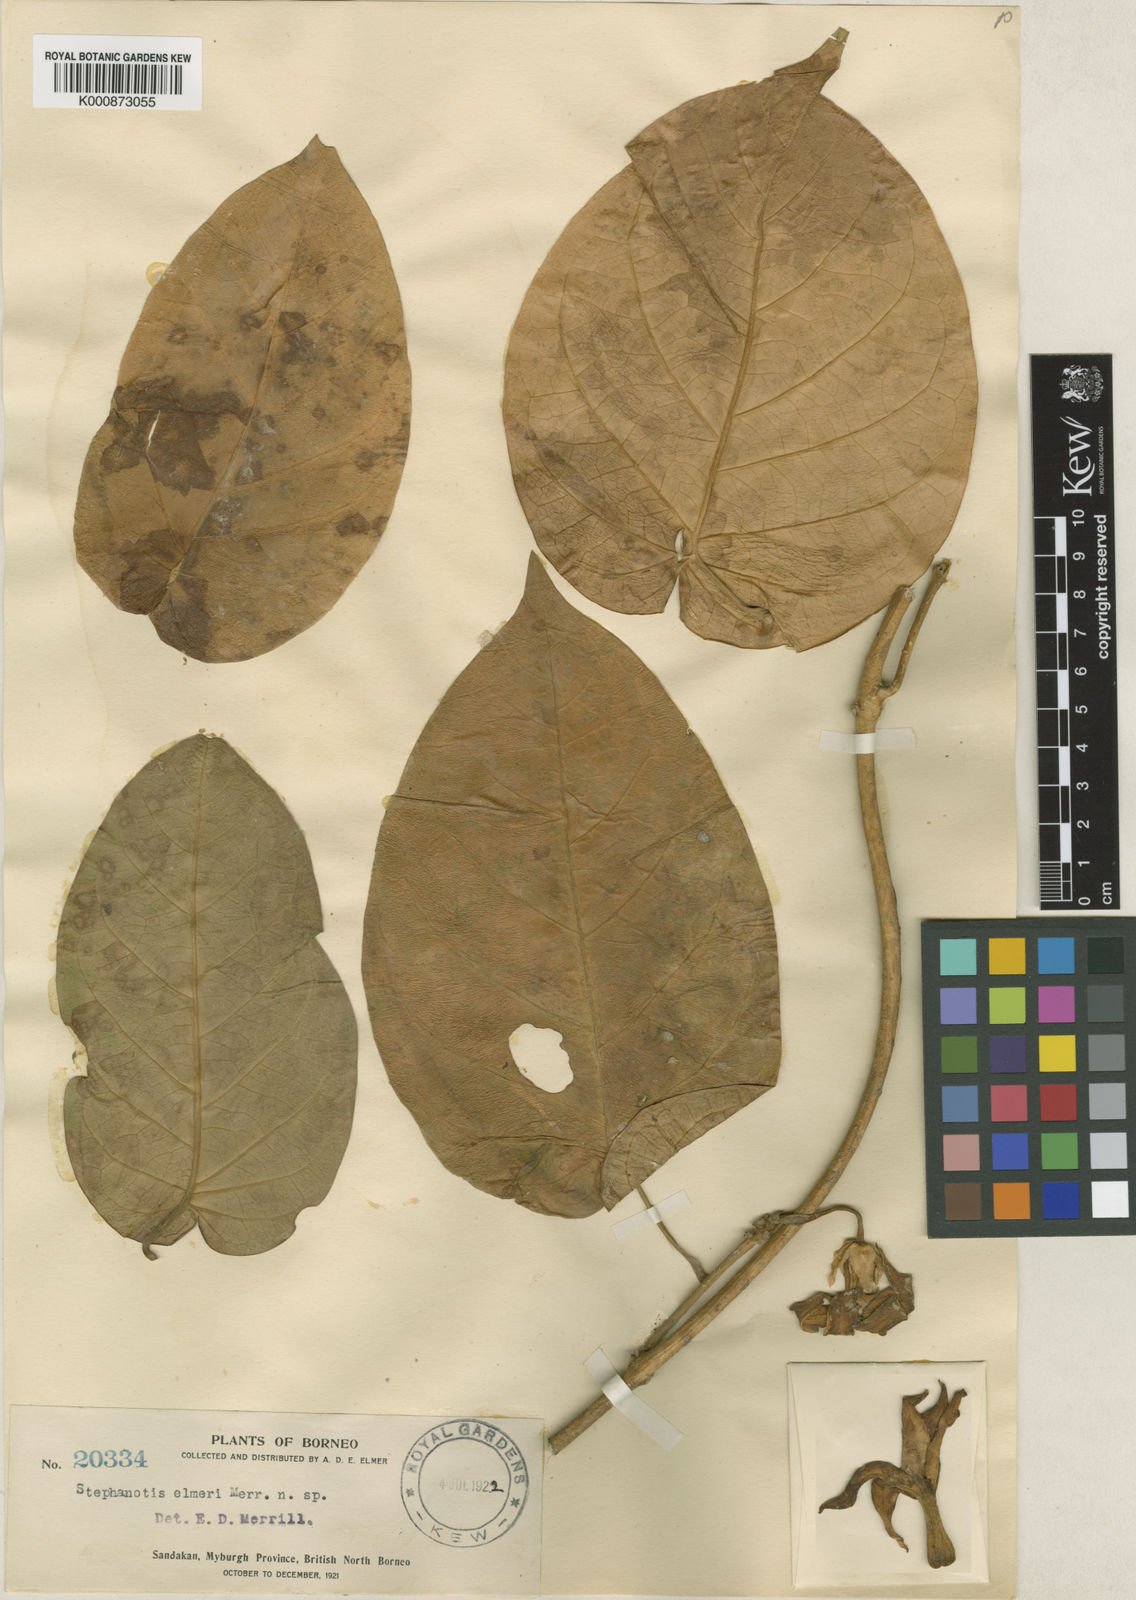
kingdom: Plantae
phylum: Tracheophyta
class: Magnoliopsida
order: Gentianales
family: Apocynaceae
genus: Marsdenia
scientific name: Marsdenia
